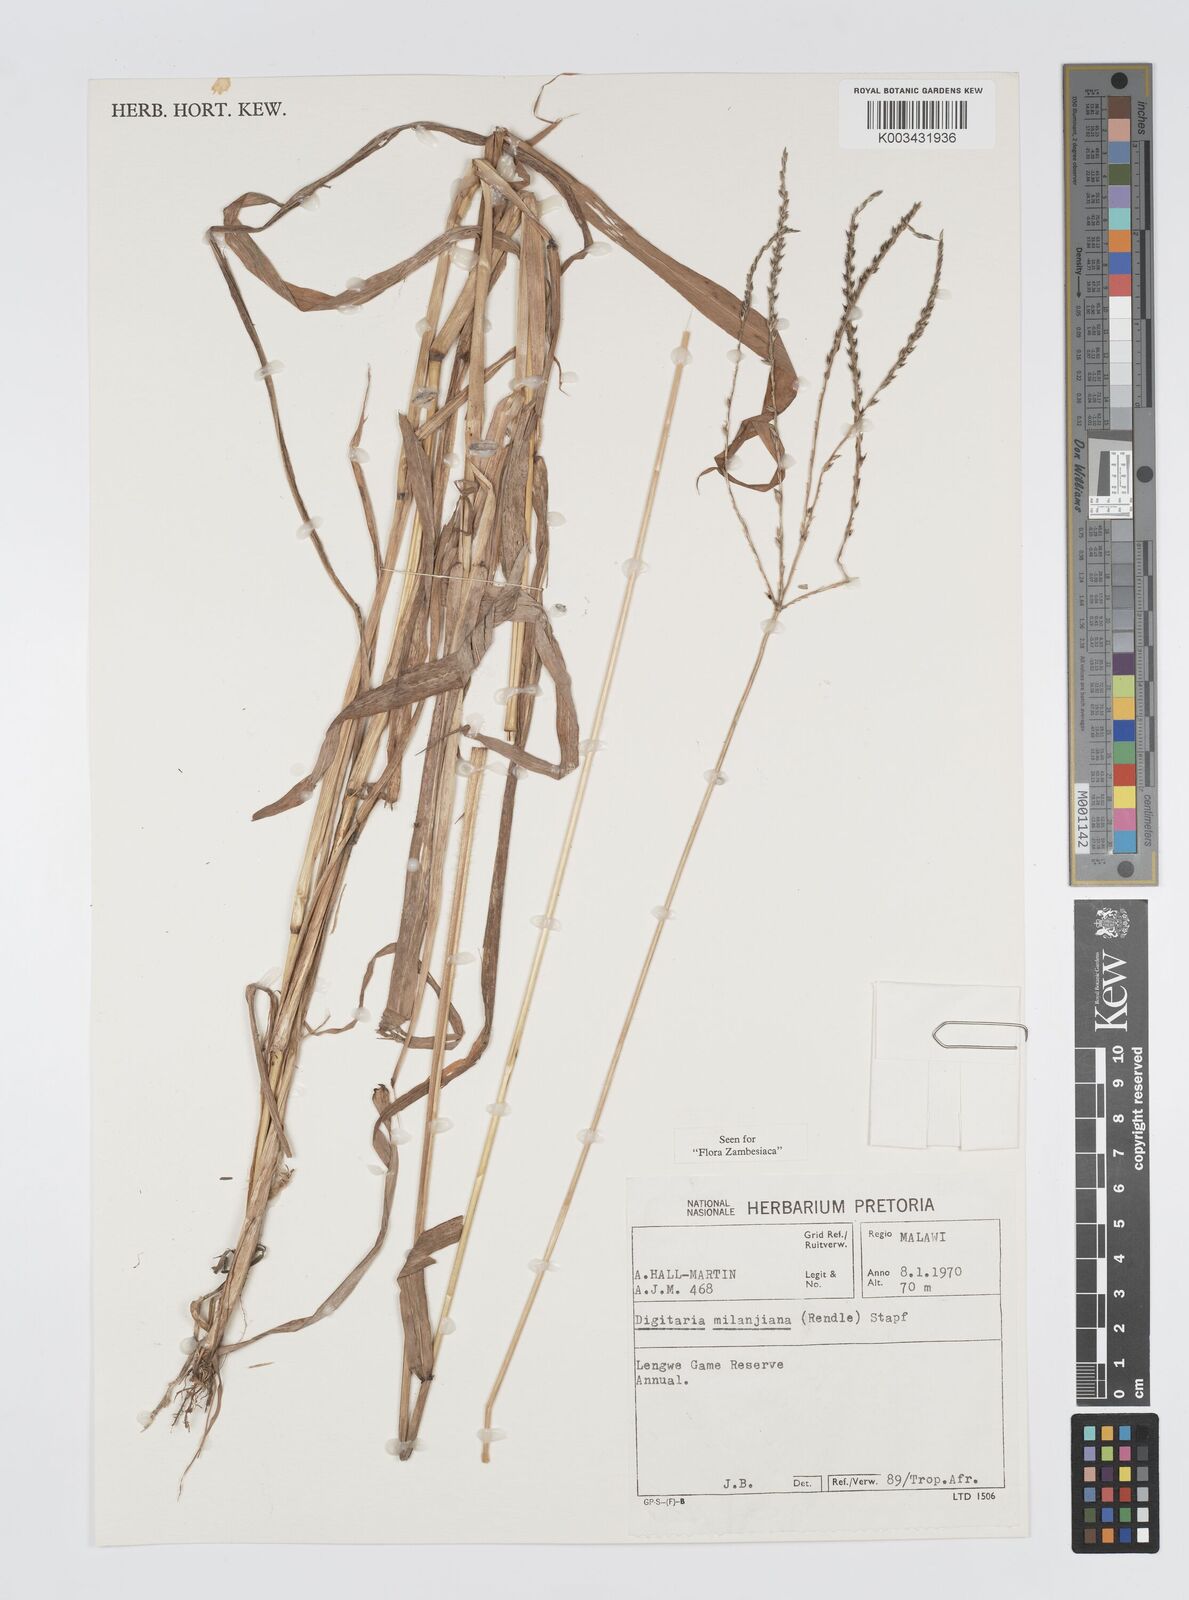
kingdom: Plantae
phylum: Tracheophyta
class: Liliopsida
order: Poales
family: Poaceae
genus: Digitaria
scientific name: Digitaria milanjiana
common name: Madagascar crabgrass
